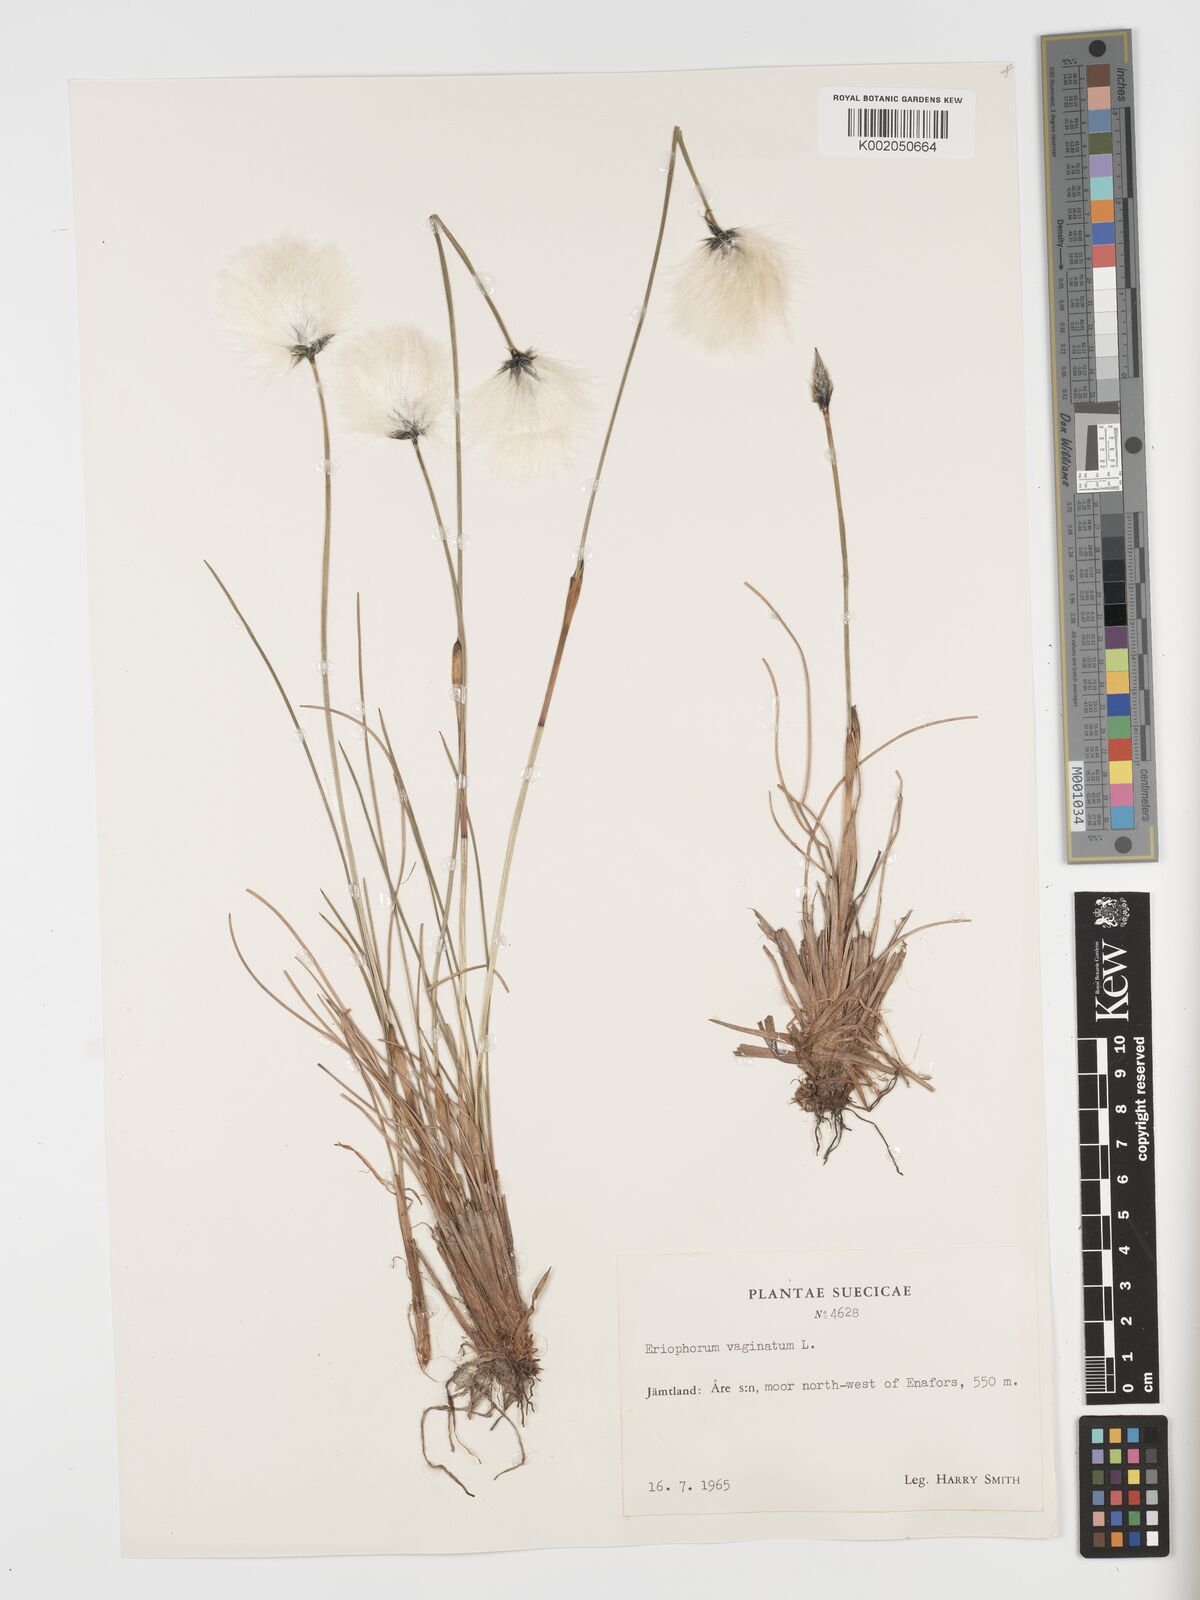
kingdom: Plantae
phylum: Tracheophyta
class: Liliopsida
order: Poales
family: Cyperaceae
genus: Eriophorum
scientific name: Eriophorum vaginatum
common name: Hare's-tail cottongrass
